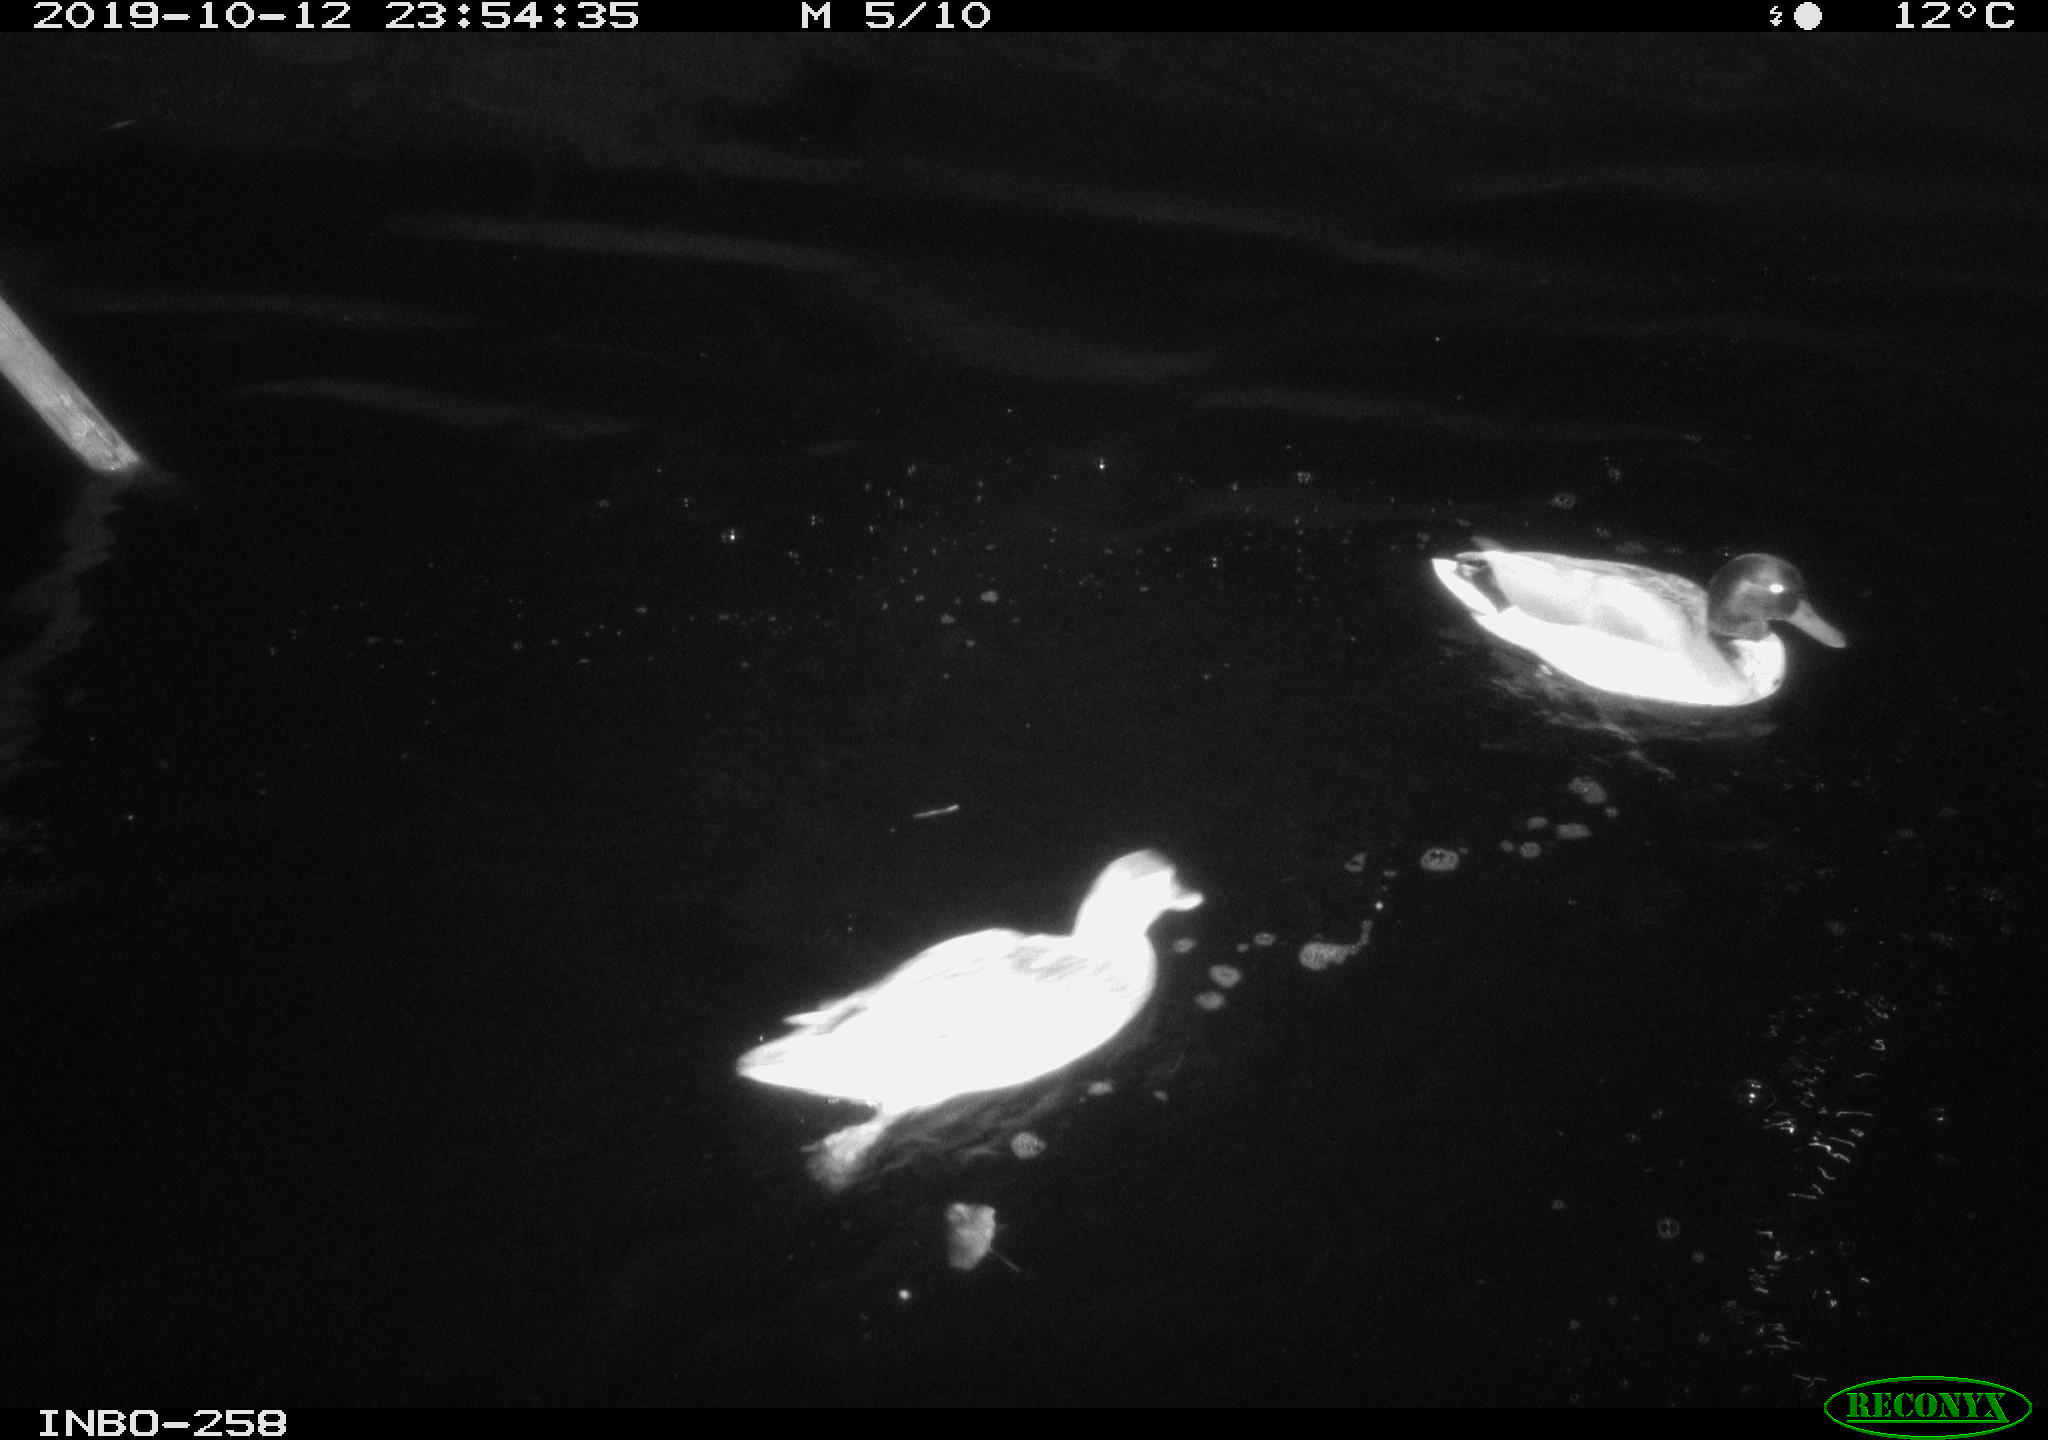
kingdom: Animalia
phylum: Chordata
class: Aves
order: Anseriformes
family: Anatidae
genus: Anas
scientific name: Anas platyrhynchos
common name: Mallard
